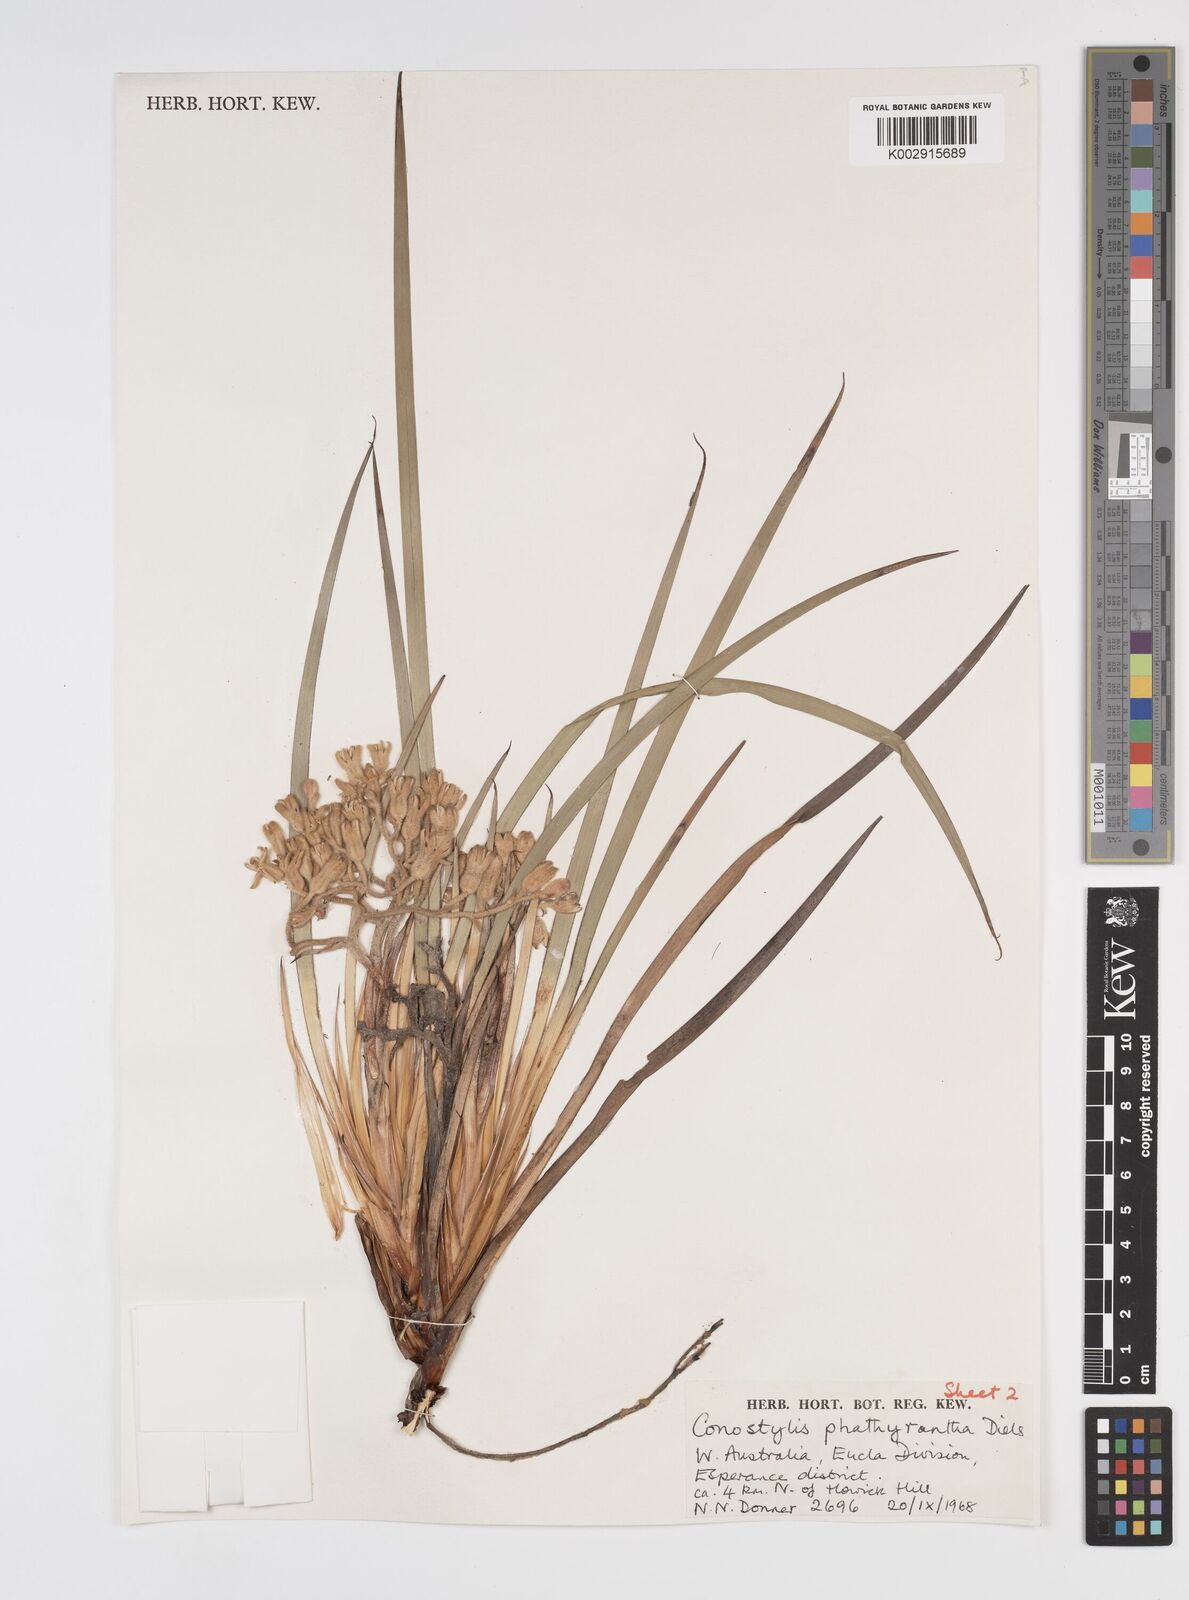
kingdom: Plantae
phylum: Tracheophyta
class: Liliopsida
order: Commelinales
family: Haemodoraceae
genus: Conostylis
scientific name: Conostylis phathyrantha
